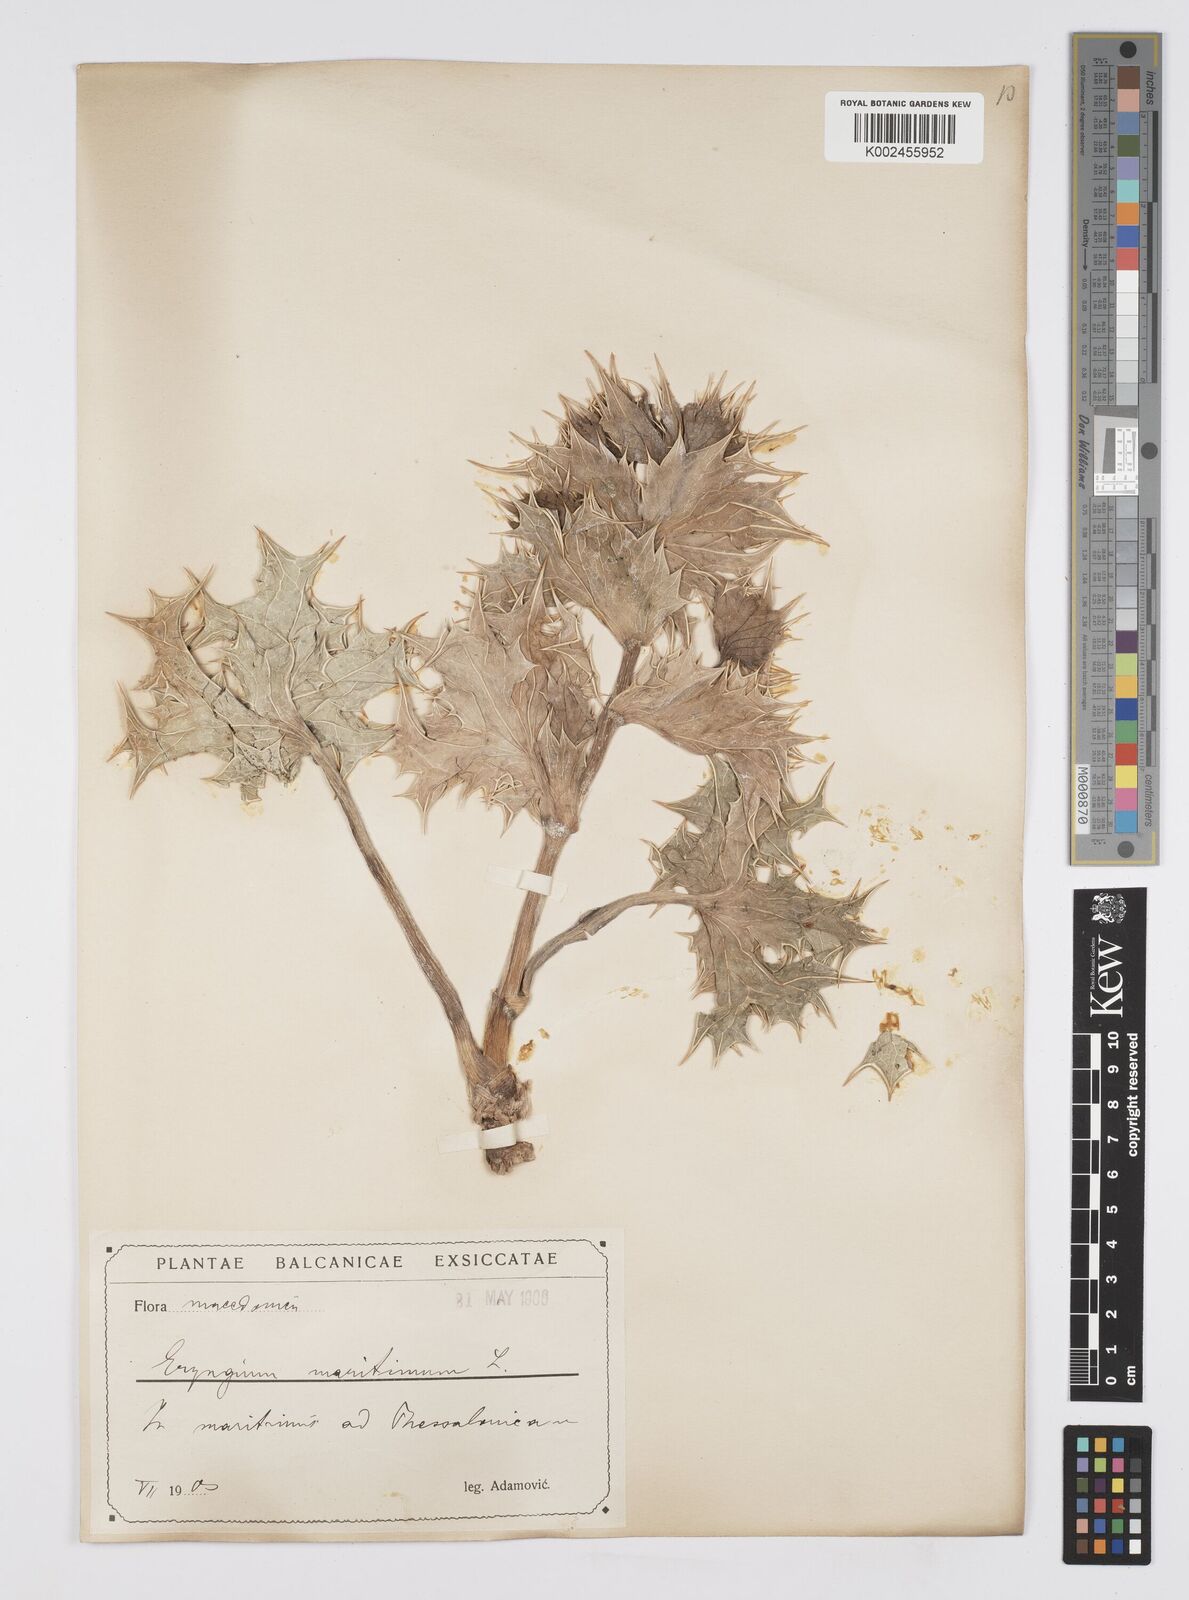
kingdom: Plantae
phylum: Tracheophyta
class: Magnoliopsida
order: Apiales
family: Apiaceae
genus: Eryngium
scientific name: Eryngium maritimum
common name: Sea-holly
